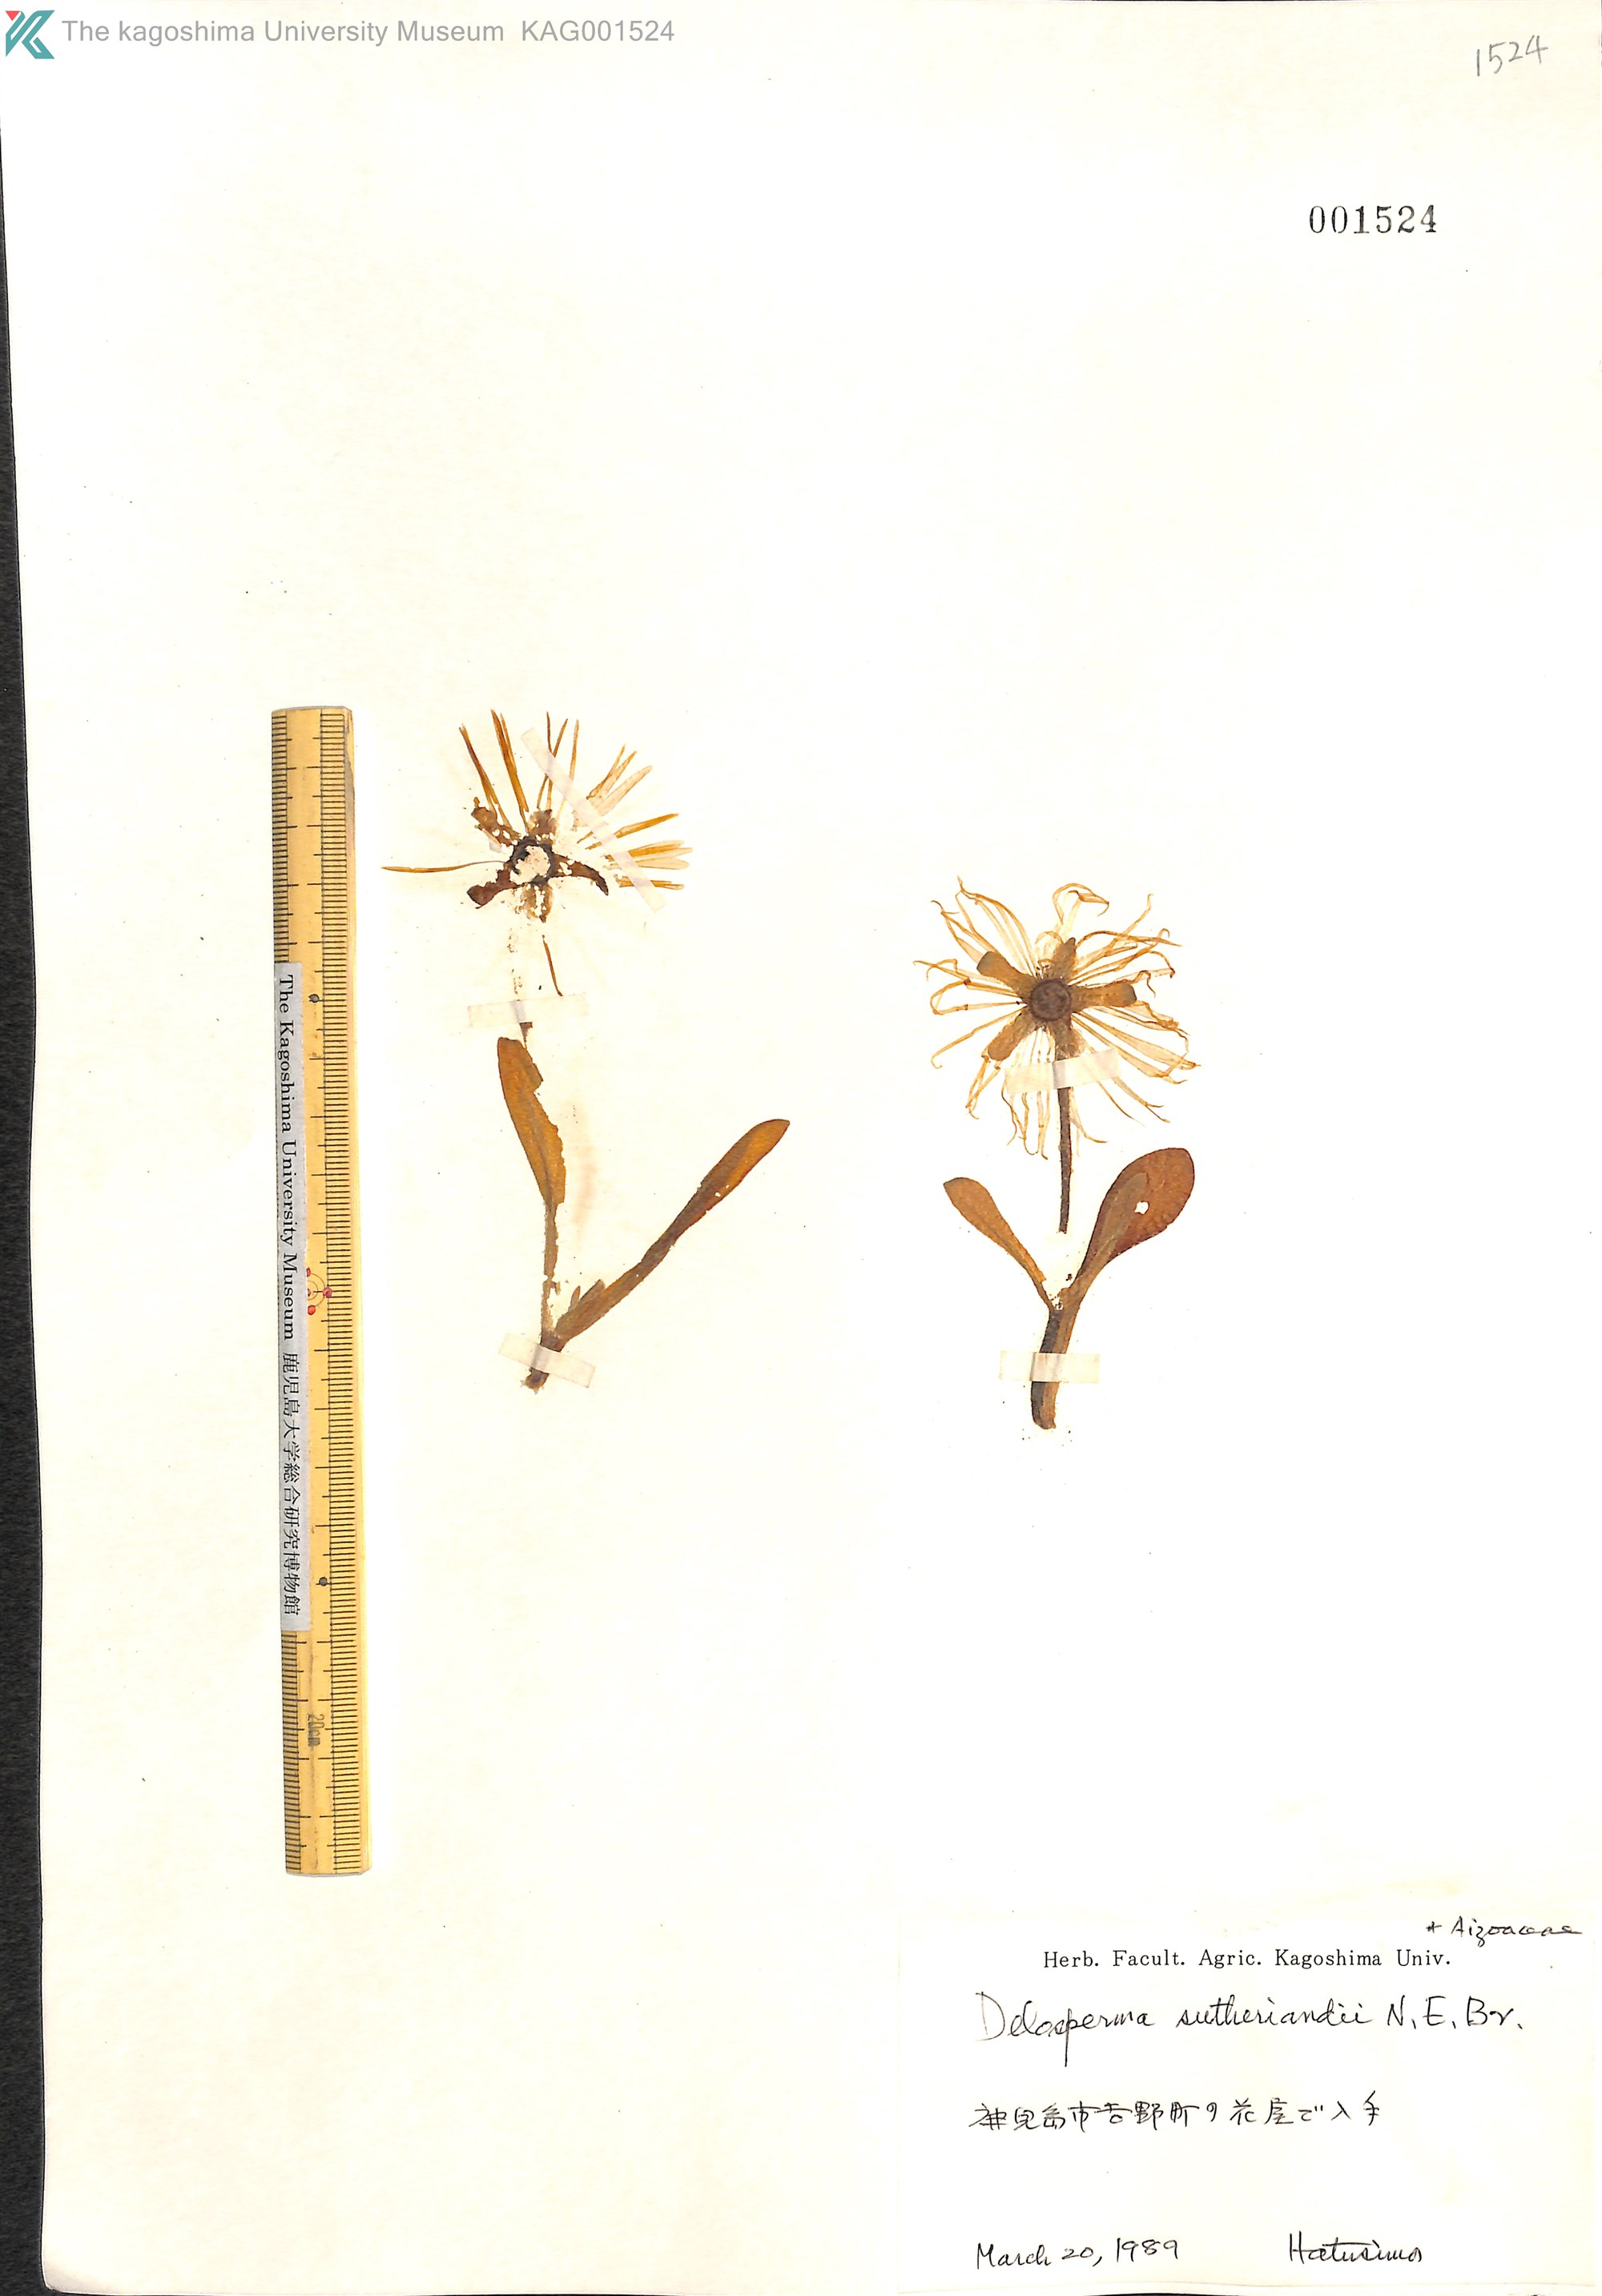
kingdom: Plantae
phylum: Tracheophyta
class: Magnoliopsida
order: Caryophyllales
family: Aizoaceae
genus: Delosperma
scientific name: Delosperma sutherlandii
